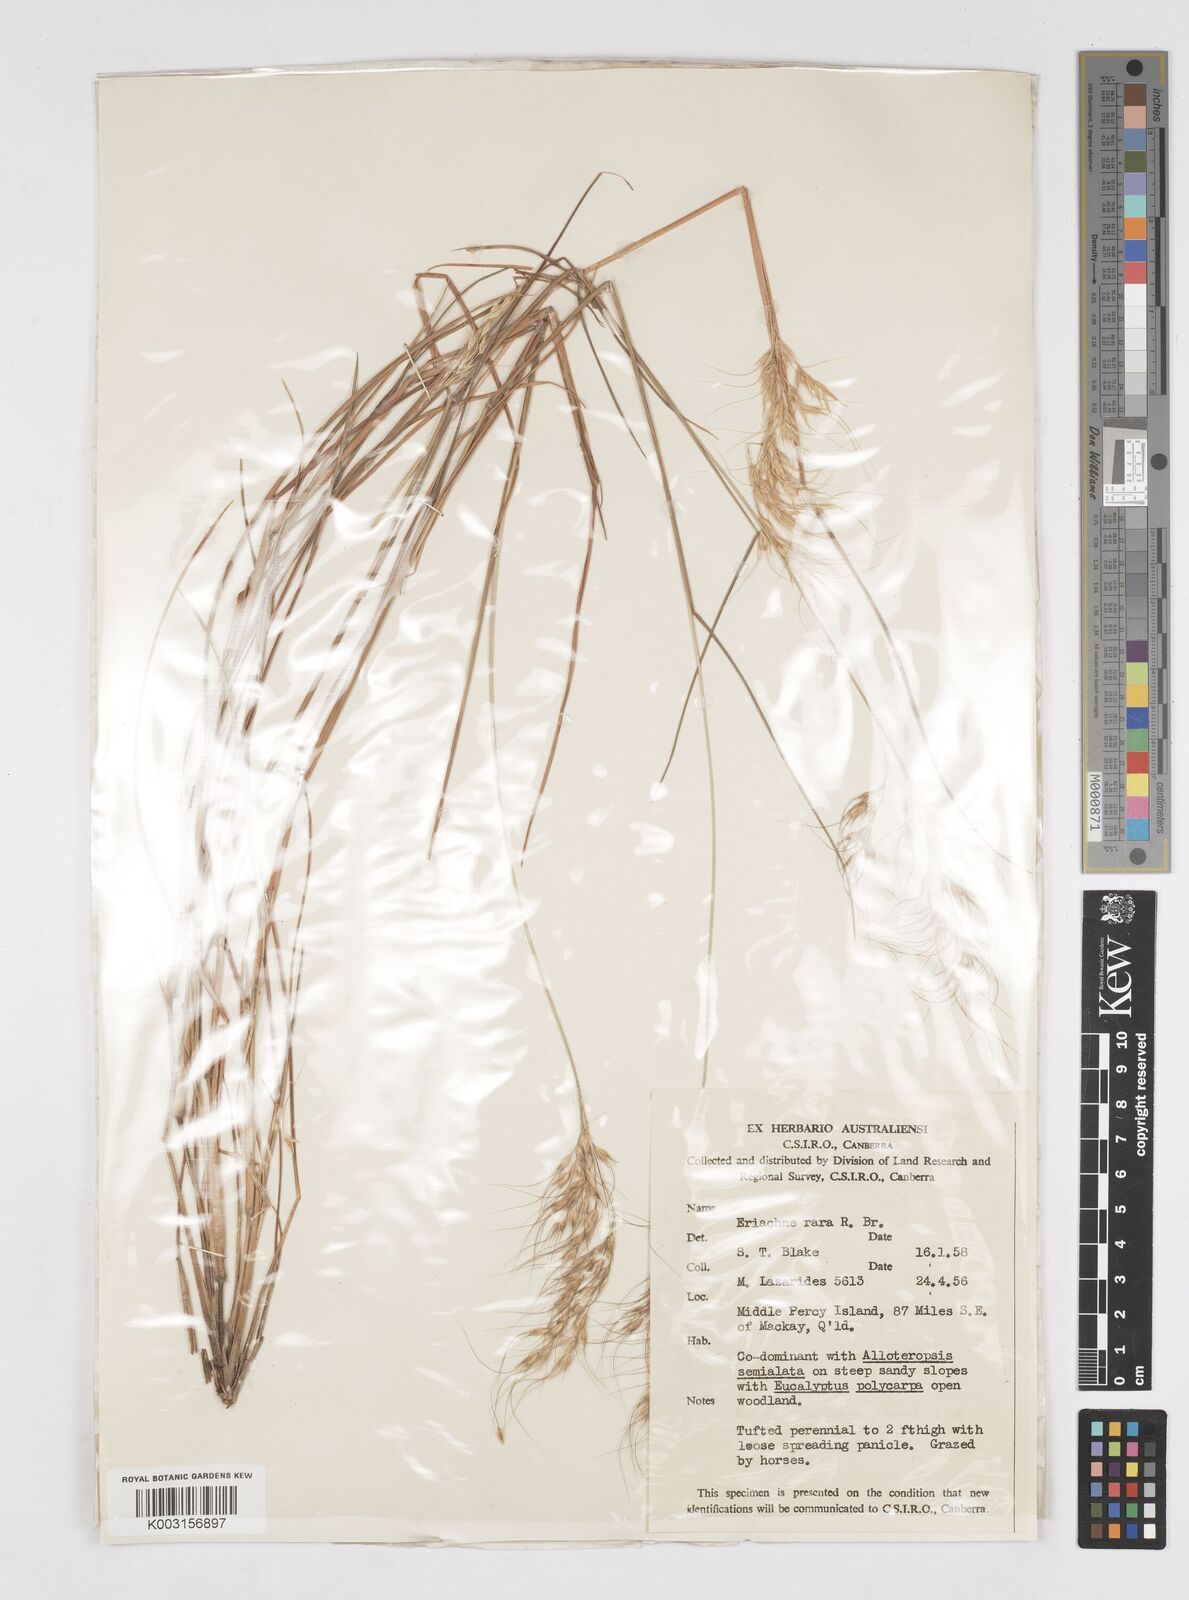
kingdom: Plantae
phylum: Tracheophyta
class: Liliopsida
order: Poales
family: Poaceae
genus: Eriachne
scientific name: Eriachne rara
